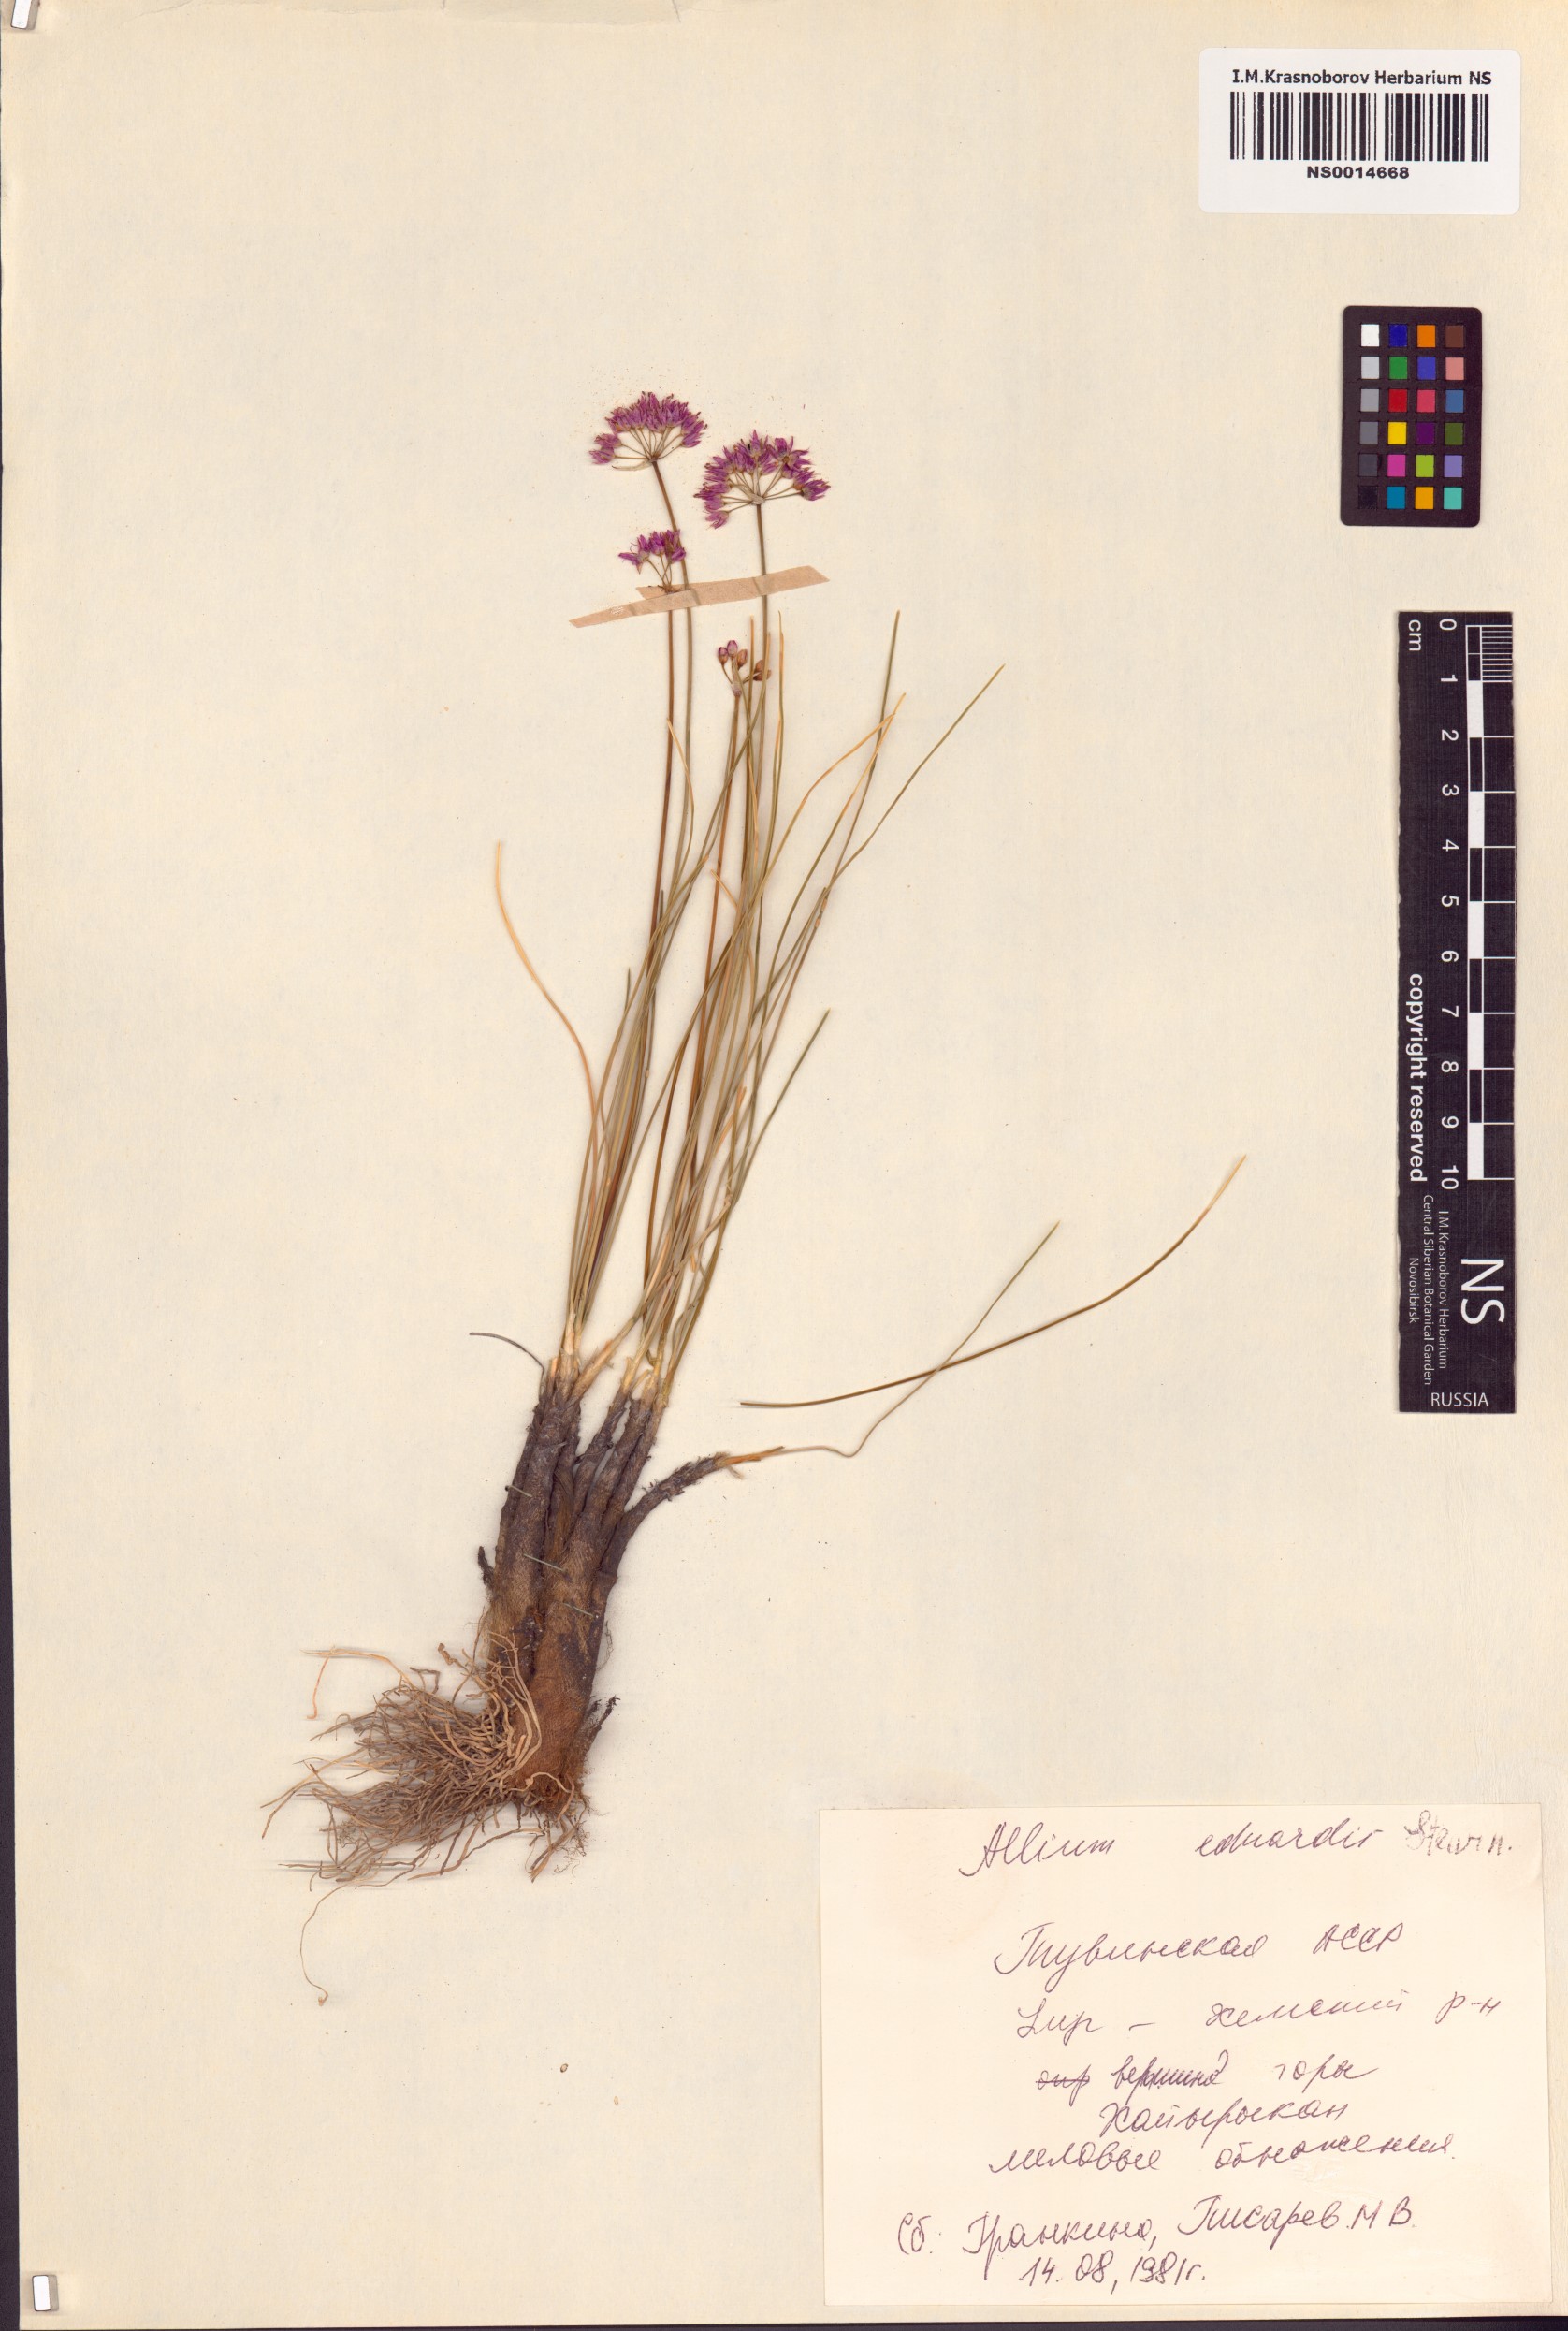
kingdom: Plantae
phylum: Tracheophyta
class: Liliopsida
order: Asparagales
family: Amaryllidaceae
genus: Allium
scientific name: Allium eduardi
